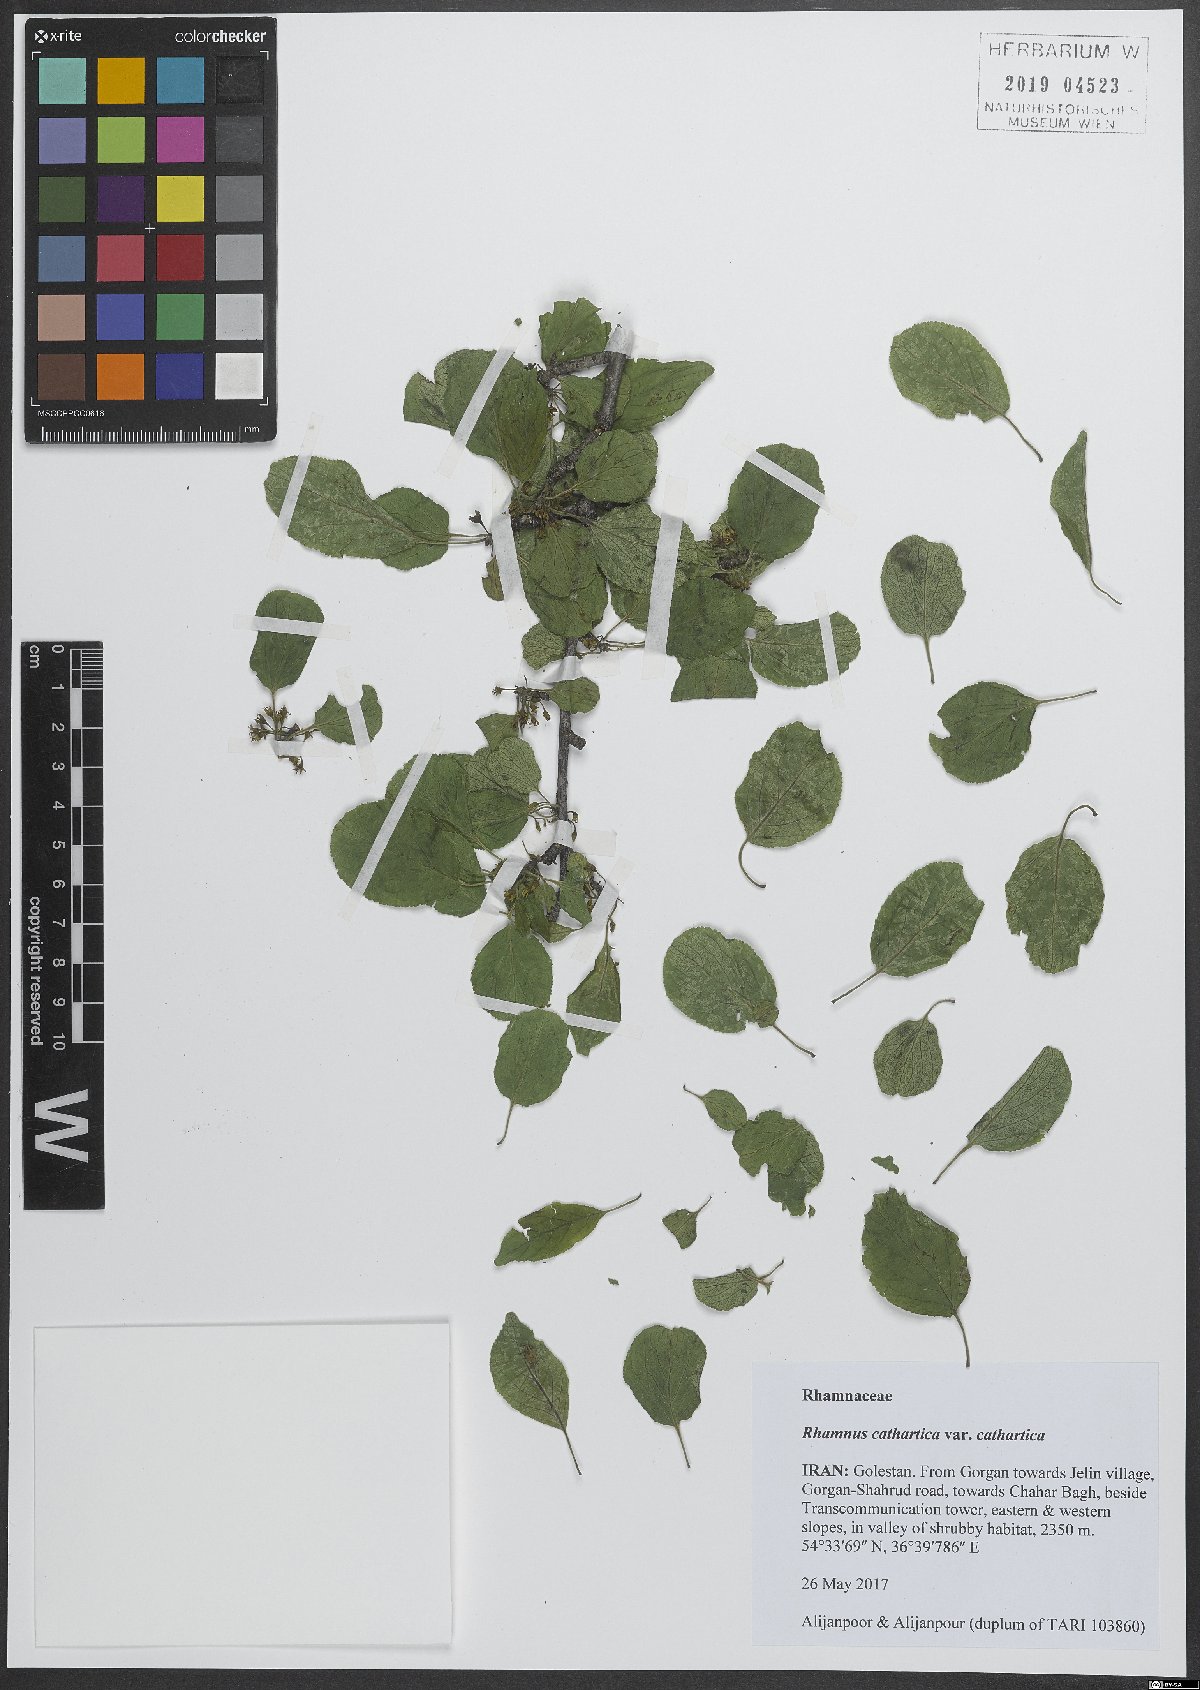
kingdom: Plantae
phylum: Tracheophyta
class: Magnoliopsida
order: Rosales
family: Rhamnaceae
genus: Rhamnus
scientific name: Rhamnus cathartica
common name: Common buckthorn
